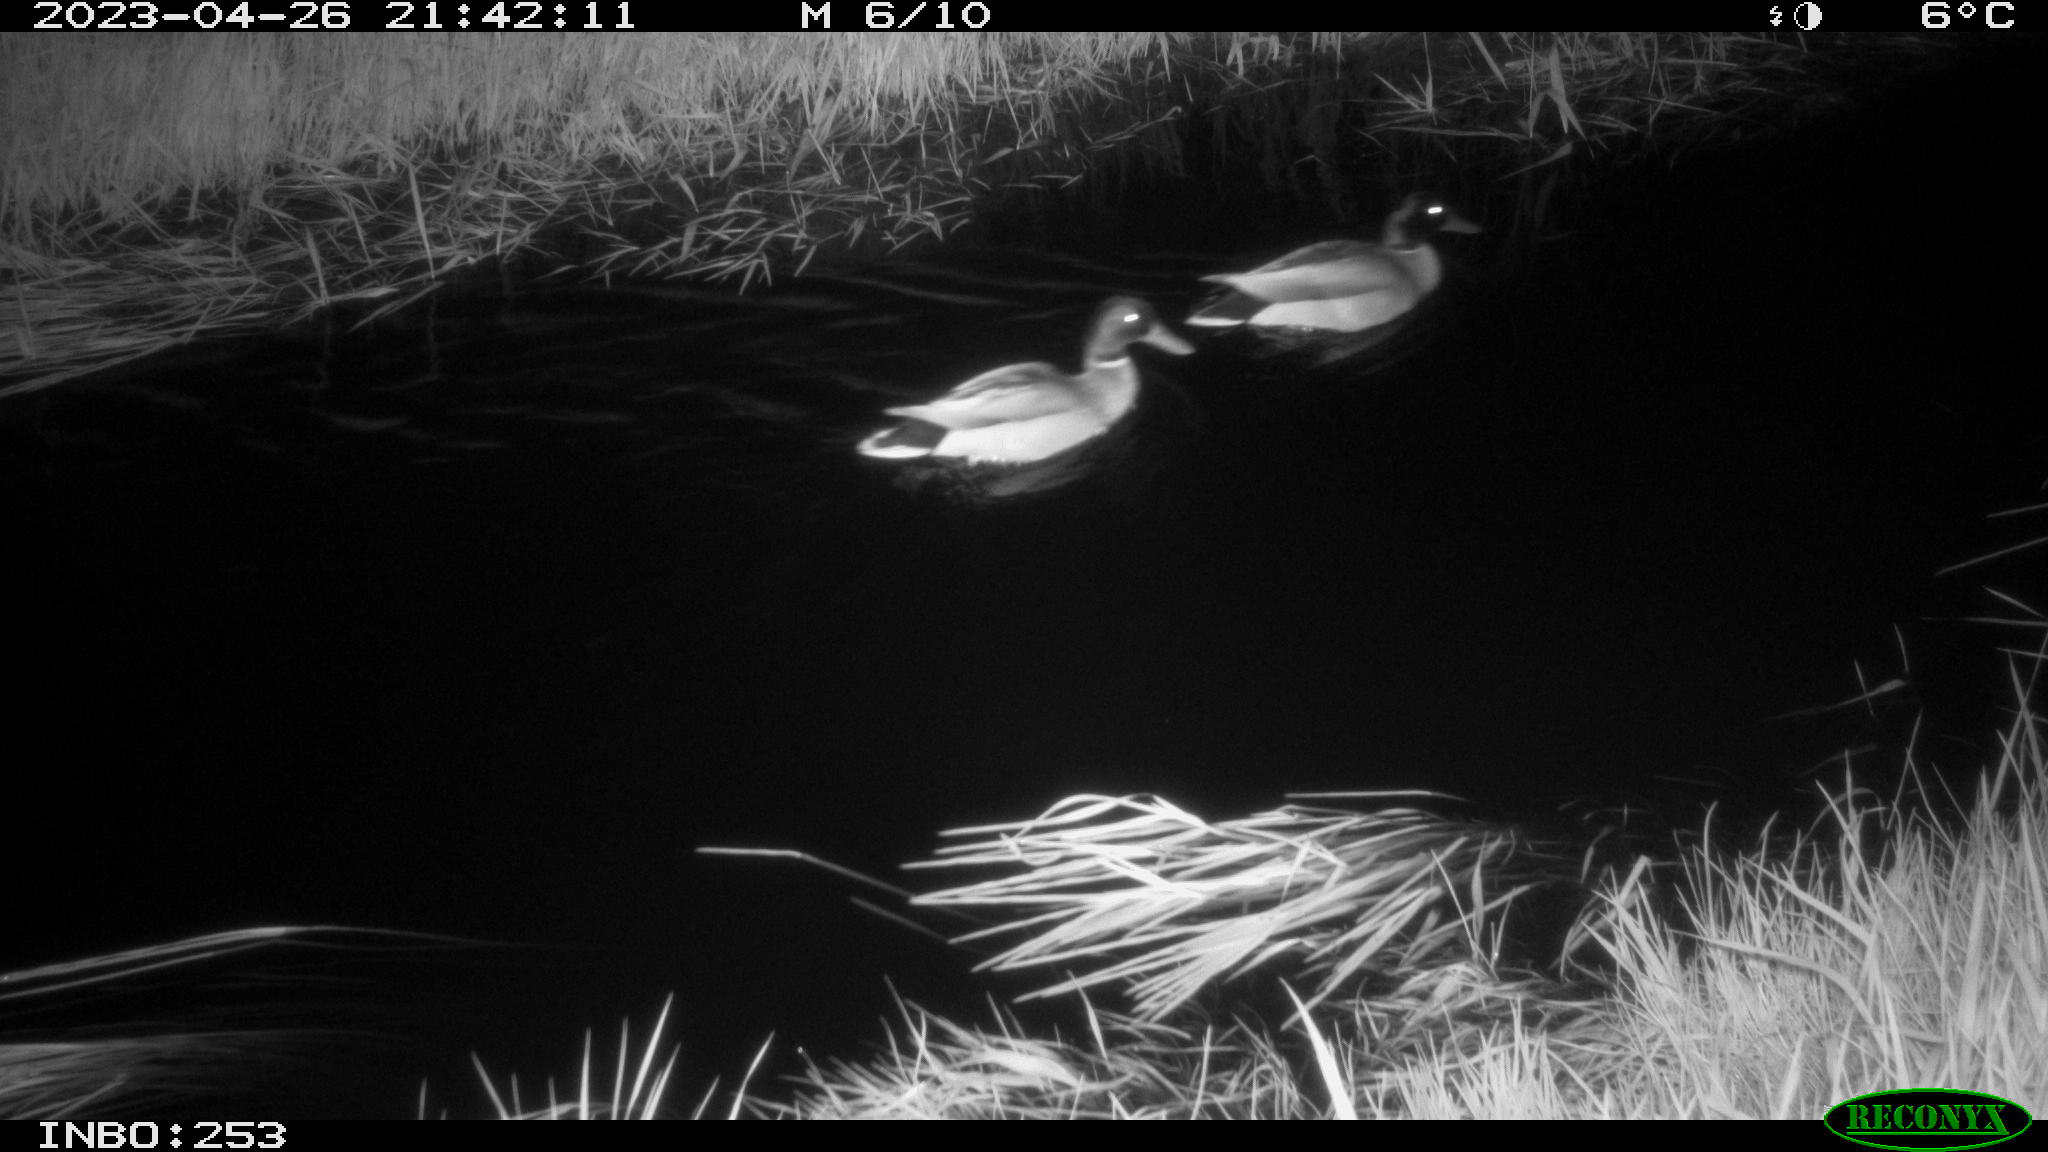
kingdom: Animalia
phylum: Chordata
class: Aves
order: Anseriformes
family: Anatidae
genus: Anas
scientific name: Anas
